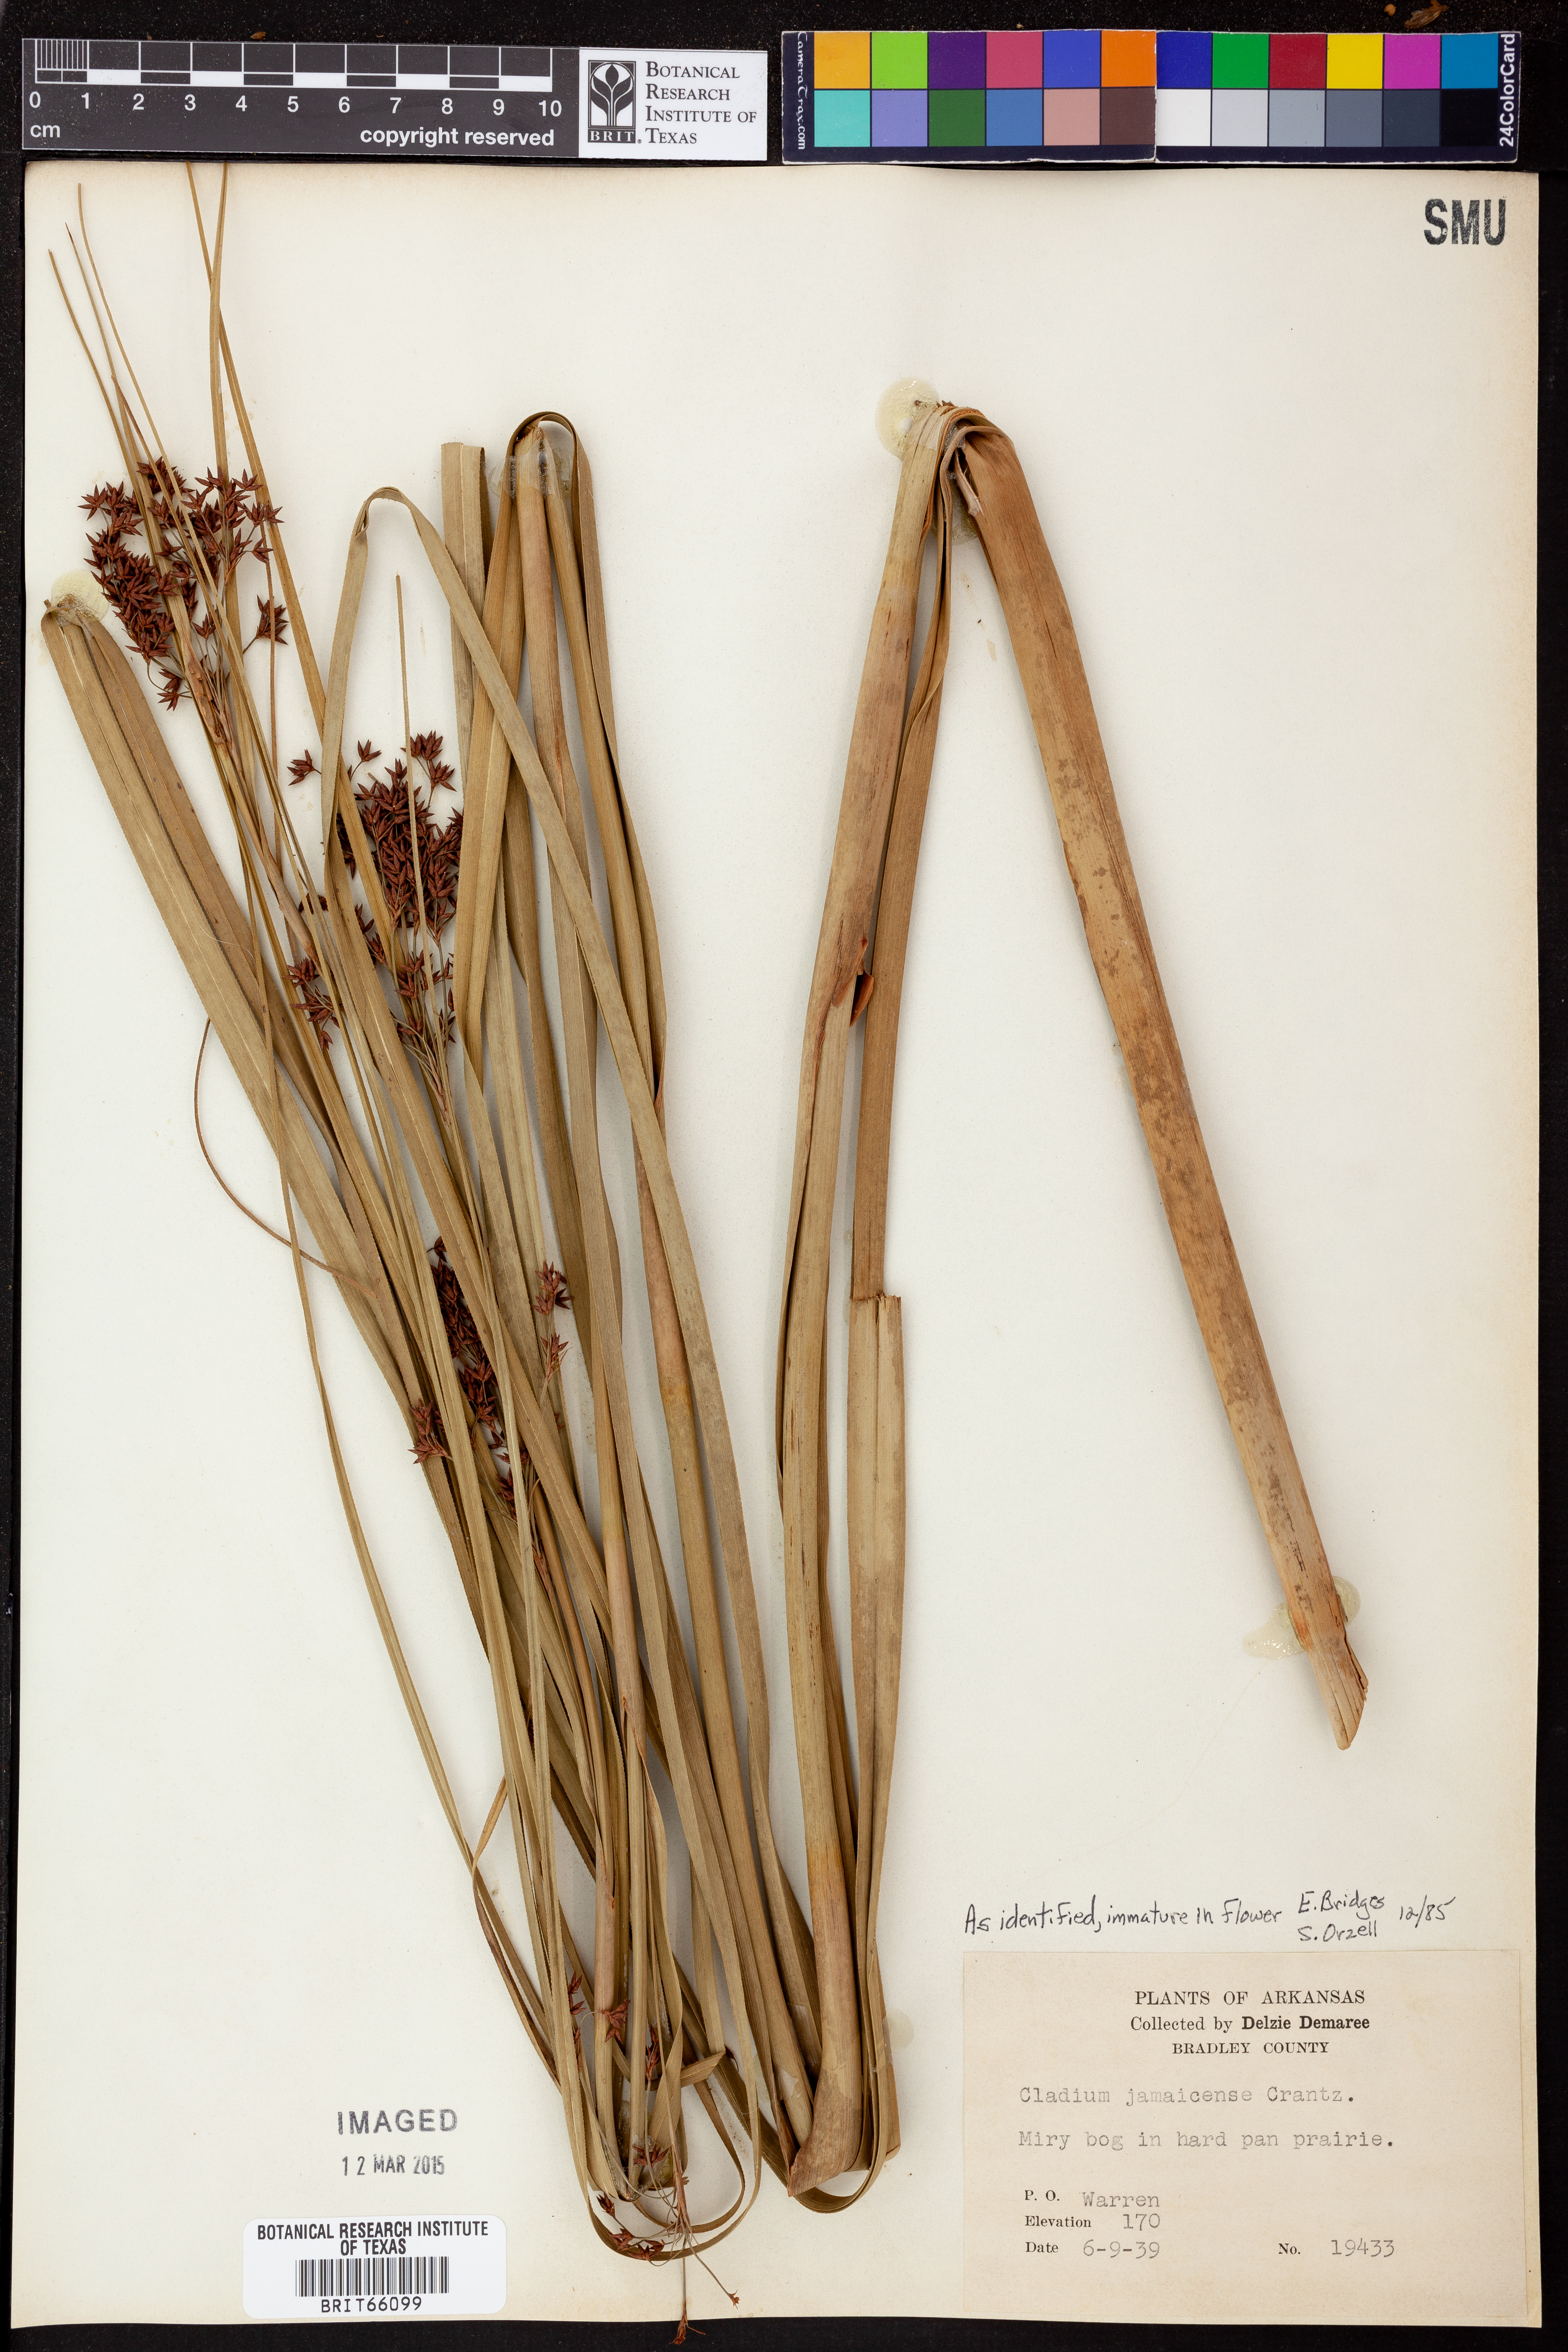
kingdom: Plantae
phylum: Tracheophyta
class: Liliopsida
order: Poales
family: Cyperaceae
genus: Cladium
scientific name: Cladium mariscus
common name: Great fen-sedge
